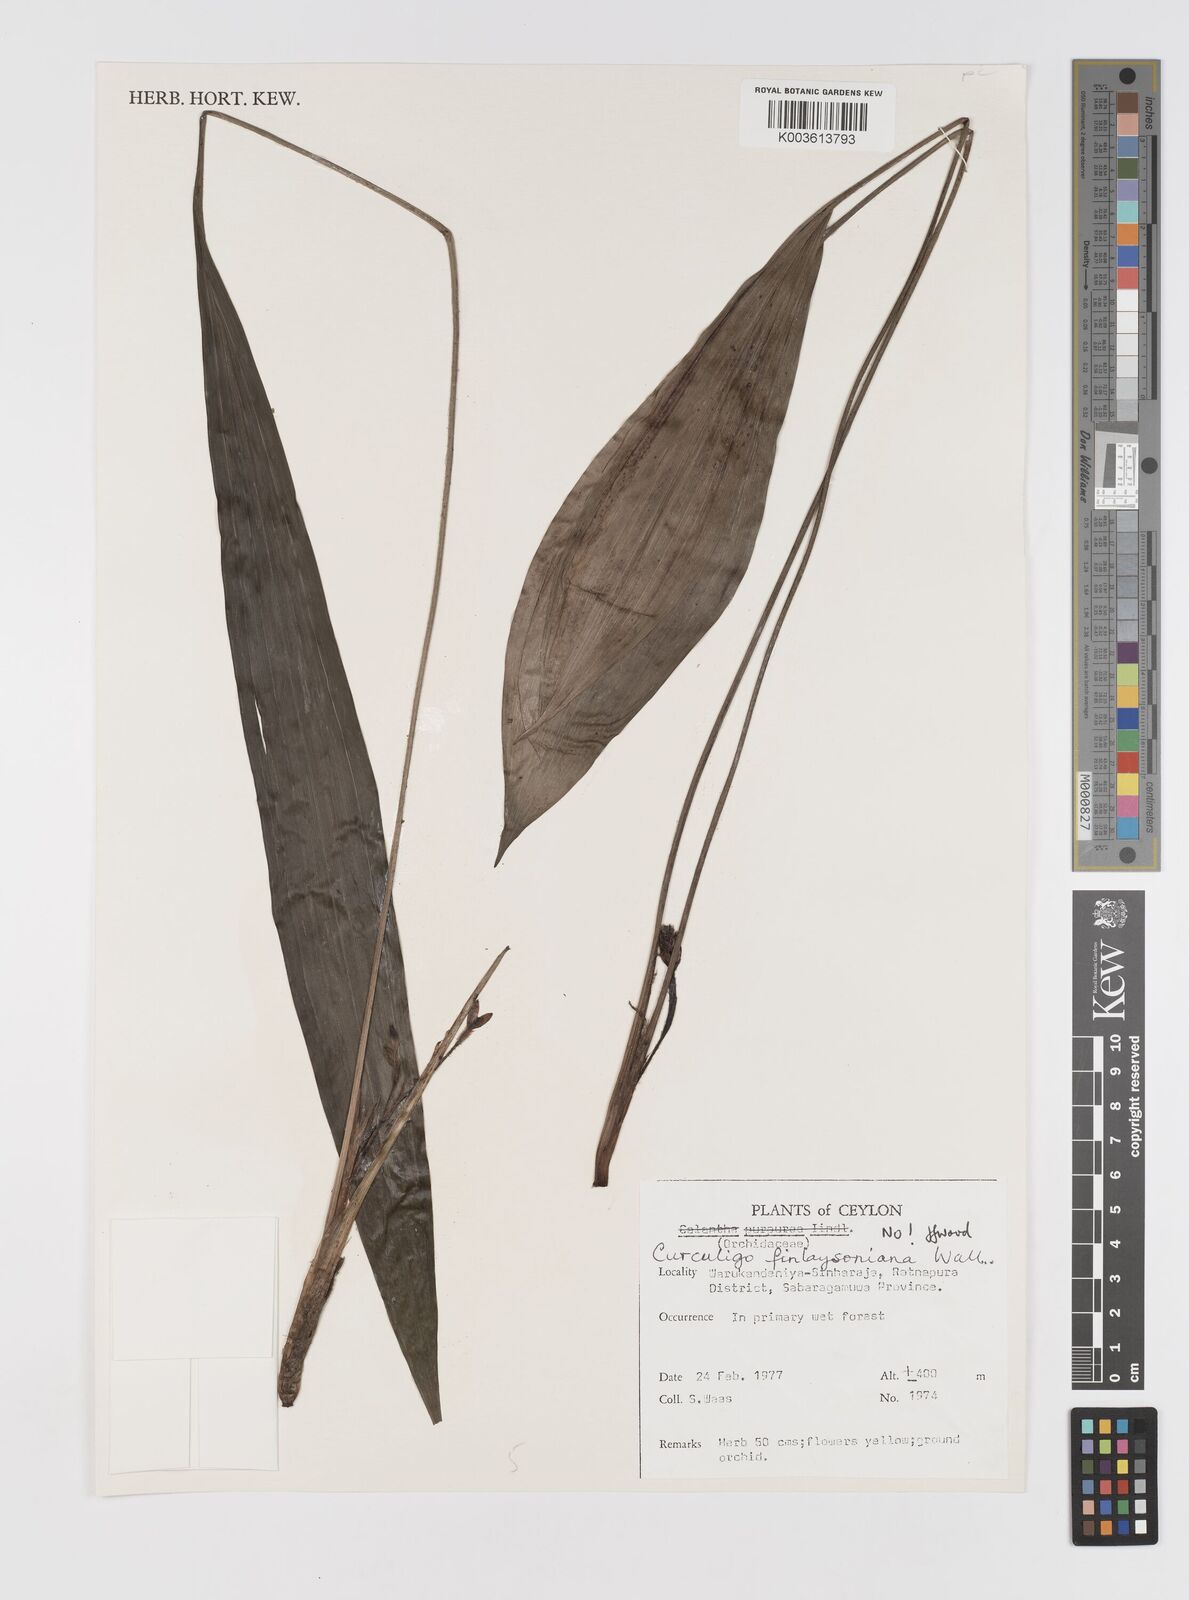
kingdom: Plantae
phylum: Tracheophyta
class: Liliopsida
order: Asparagales
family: Hypoxidaceae
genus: Curculigo
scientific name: Curculigo trichocarpa
